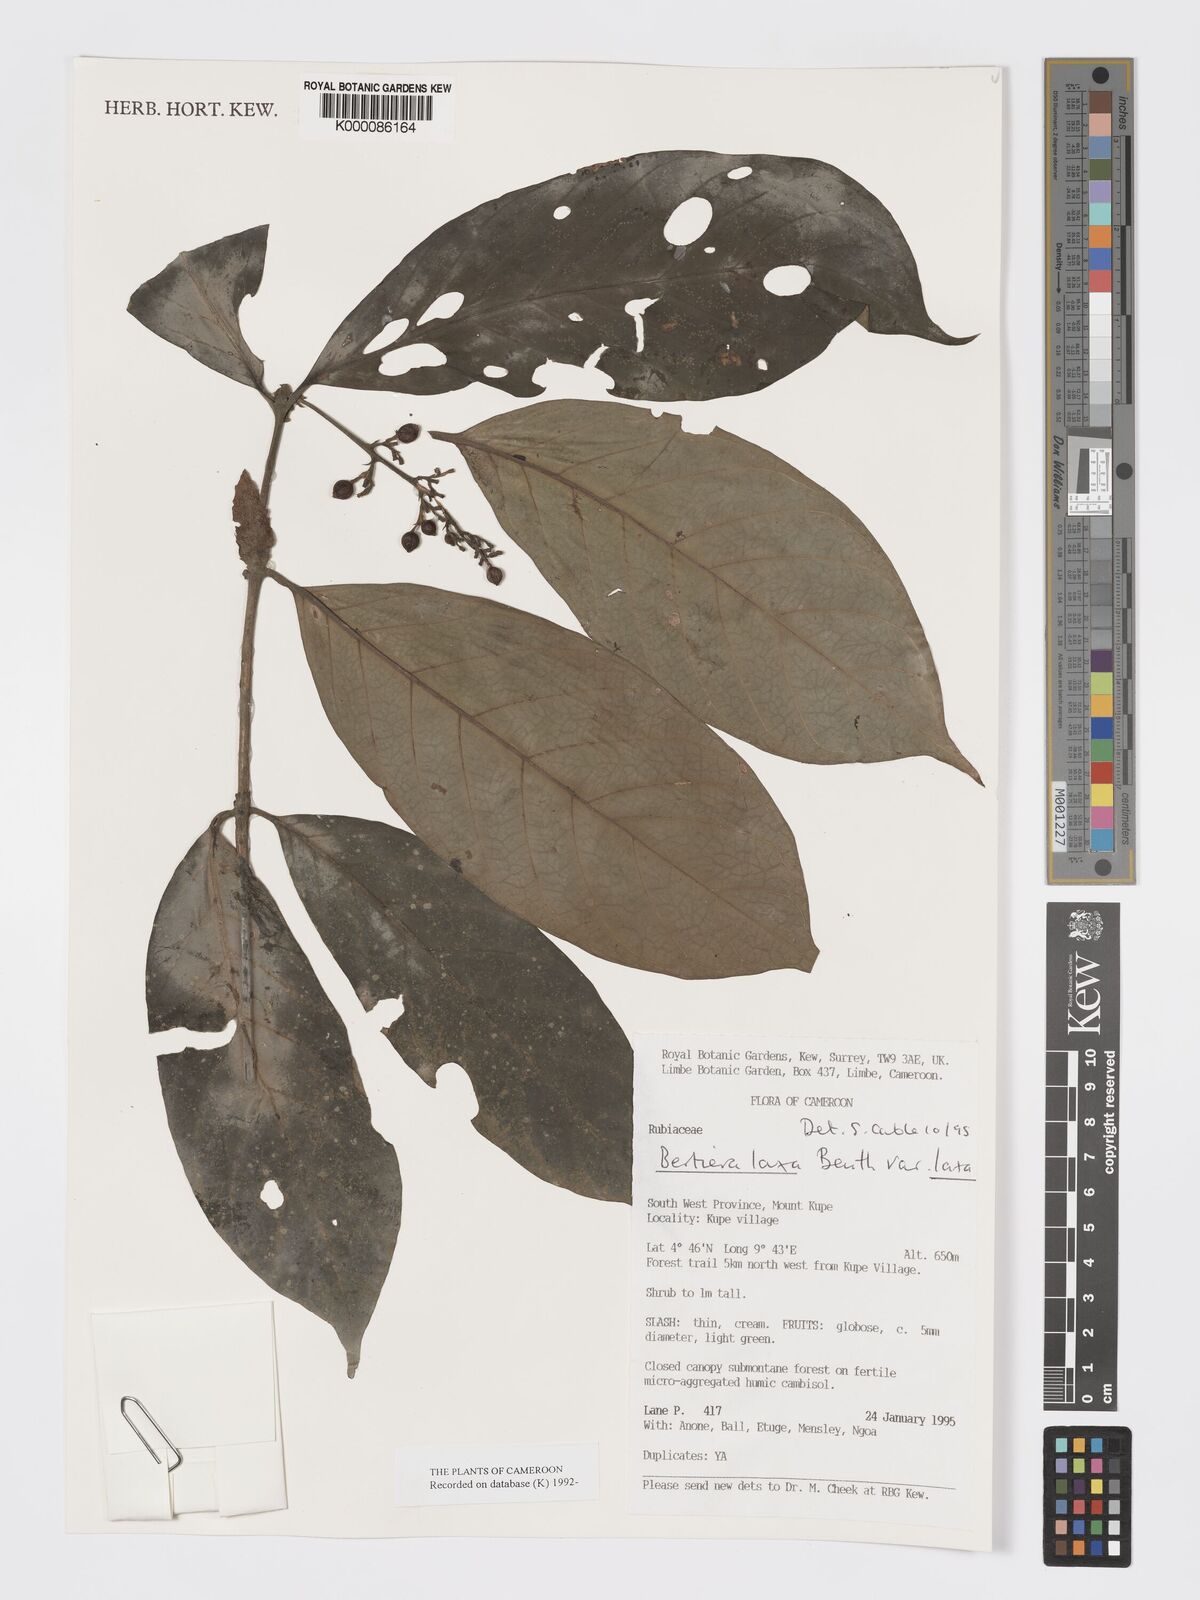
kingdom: Plantae
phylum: Tracheophyta
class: Magnoliopsida
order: Gentianales
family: Rubiaceae
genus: Bertiera
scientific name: Bertiera laxa
